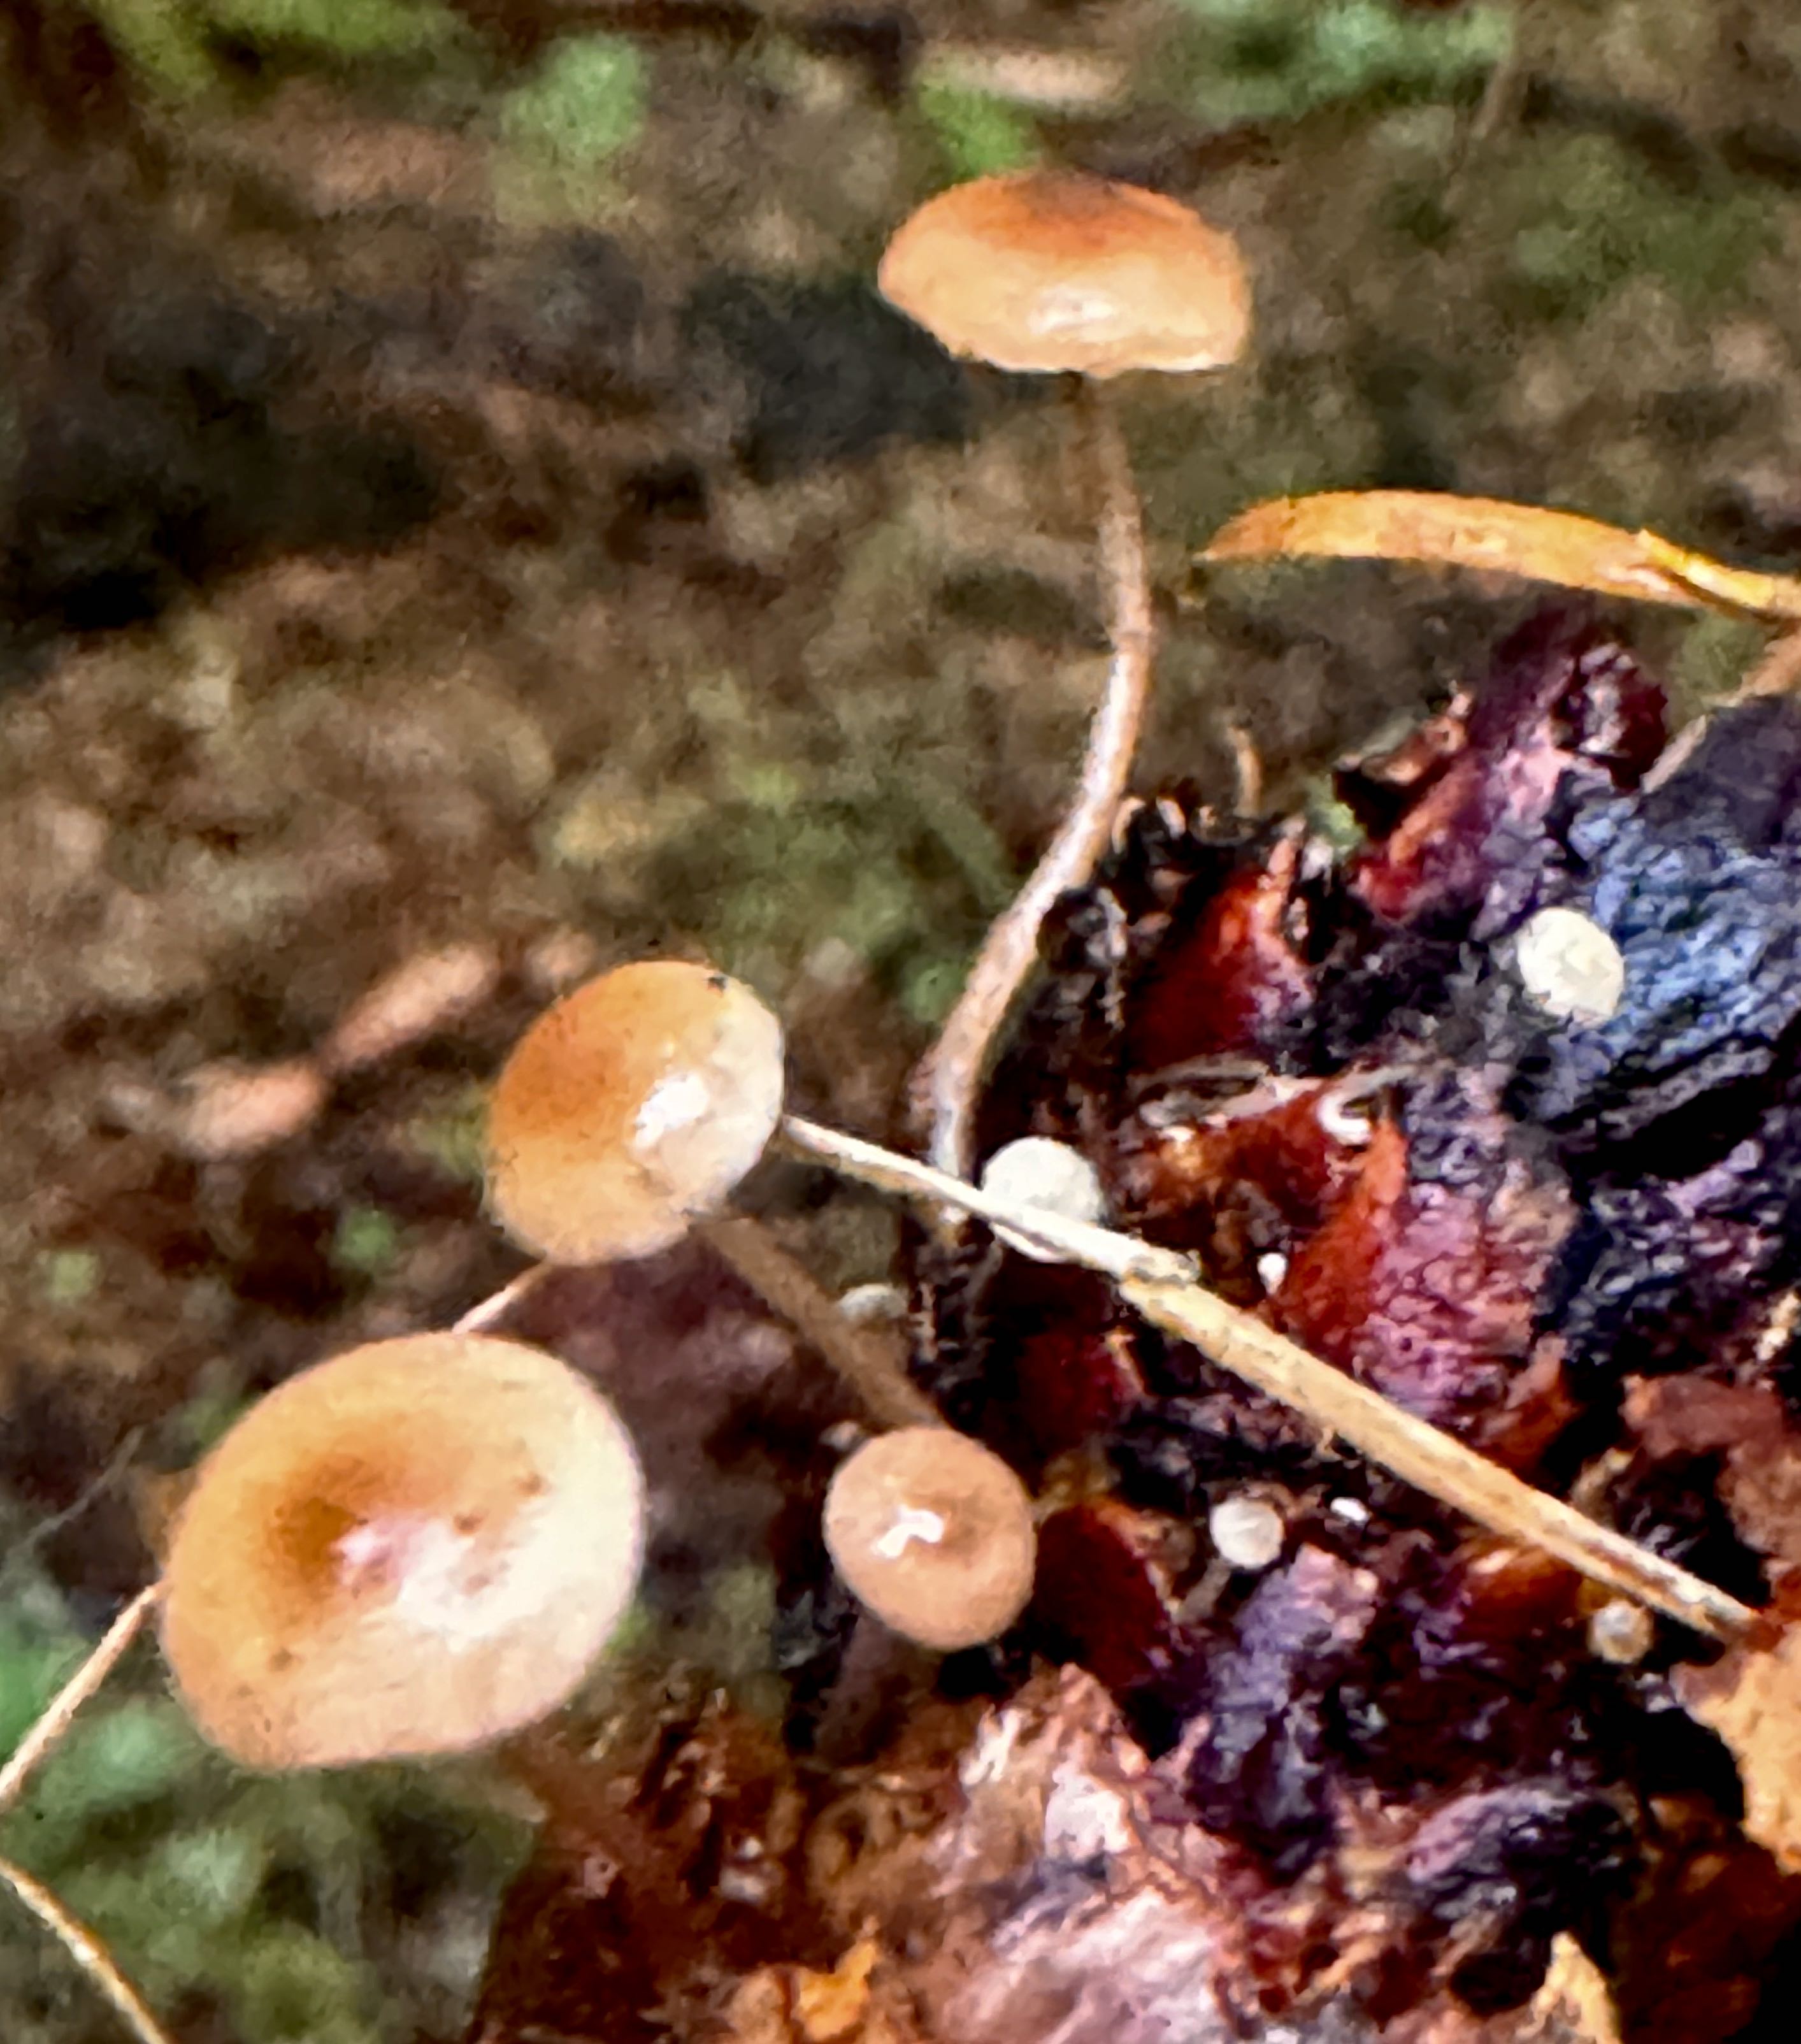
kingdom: Fungi
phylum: Basidiomycota
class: Agaricomycetes
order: Agaricales
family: Marasmiaceae
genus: Baeospora
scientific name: Baeospora myosura
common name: koglebruskhat
